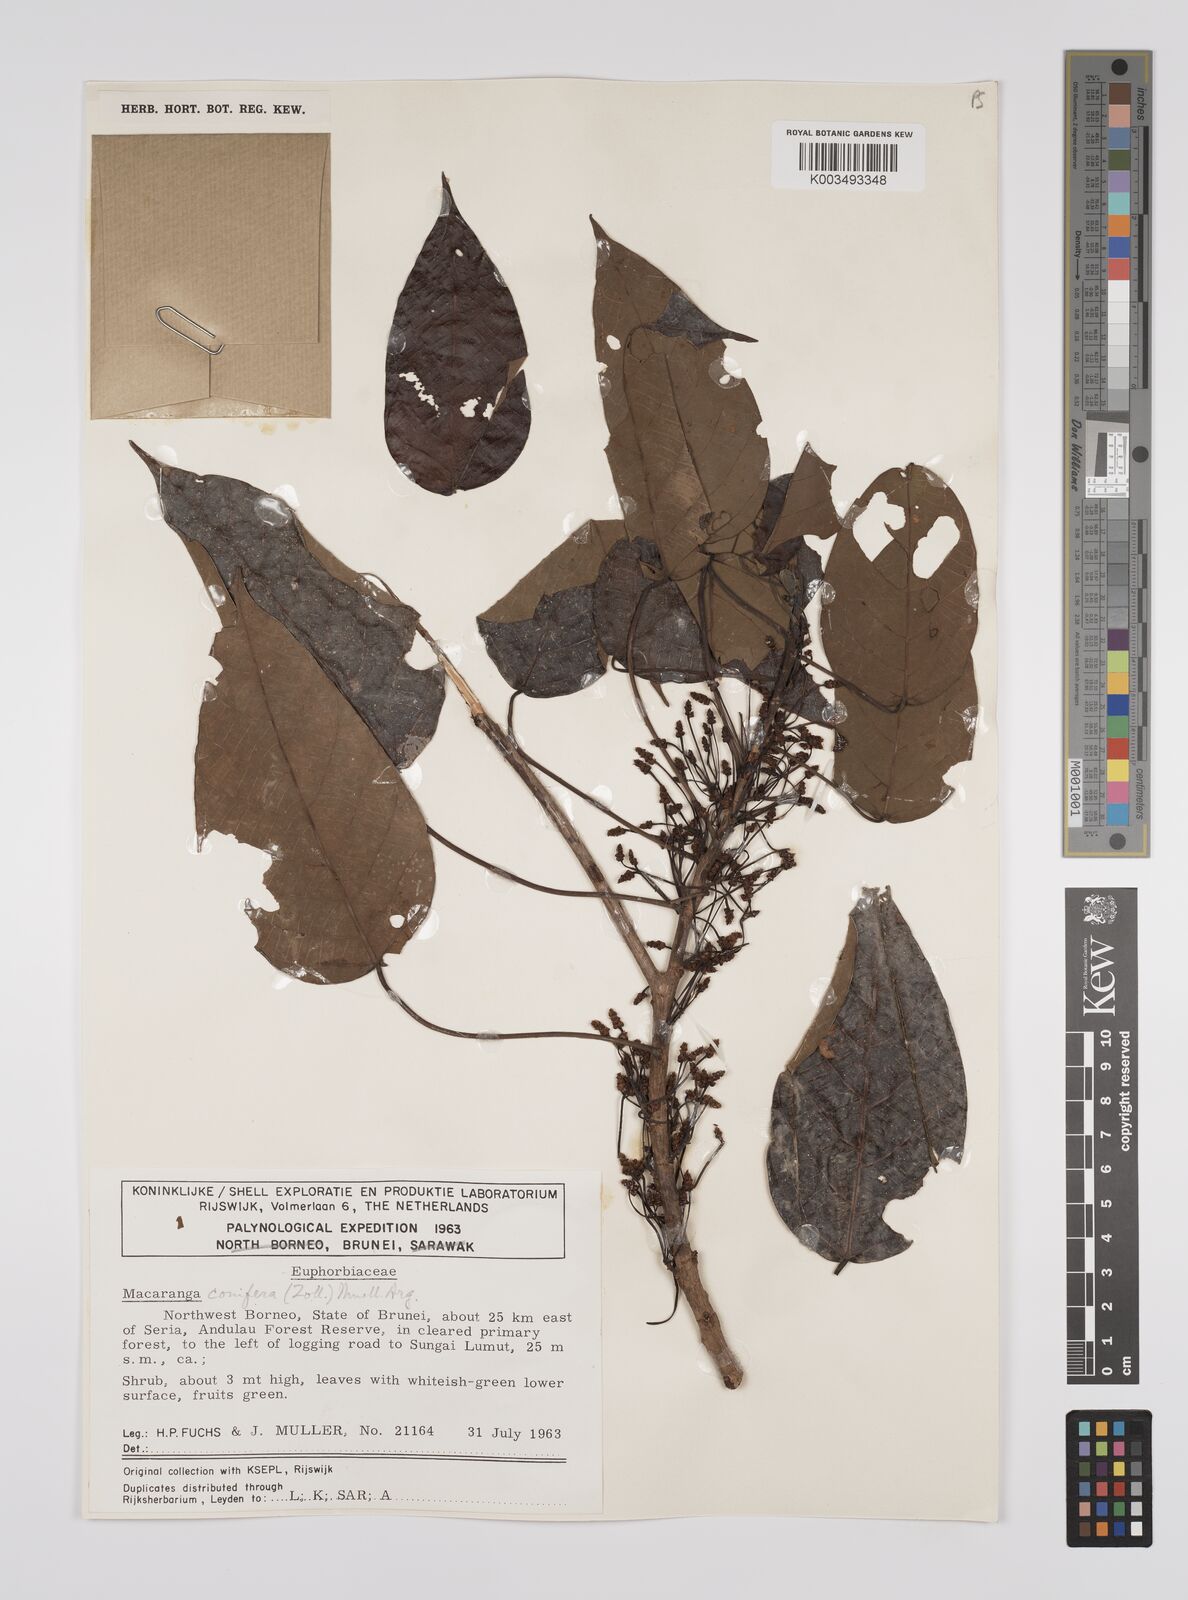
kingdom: Plantae
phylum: Tracheophyta
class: Magnoliopsida
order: Malpighiales
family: Euphorbiaceae
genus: Macaranga
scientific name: Macaranga conifera
